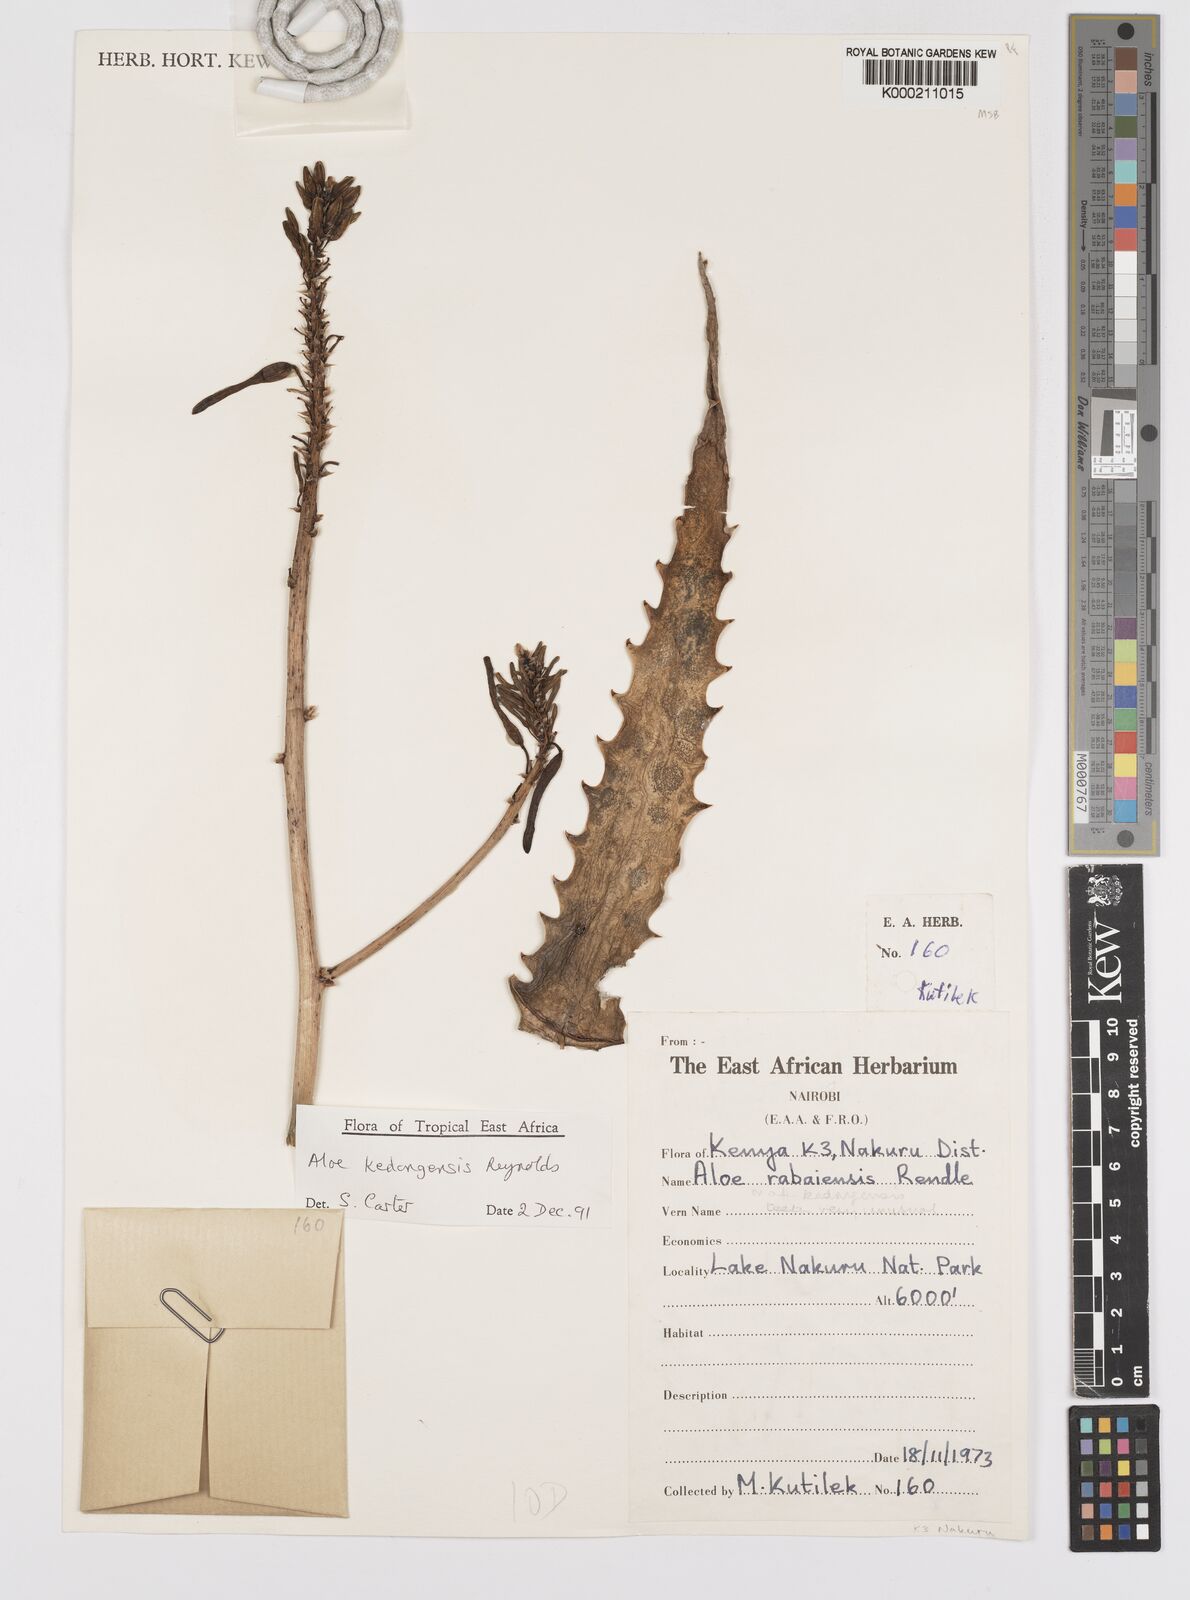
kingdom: Plantae
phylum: Tracheophyta
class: Liliopsida
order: Asparagales
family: Asphodelaceae
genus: Aloe
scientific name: Aloe kedongensis
